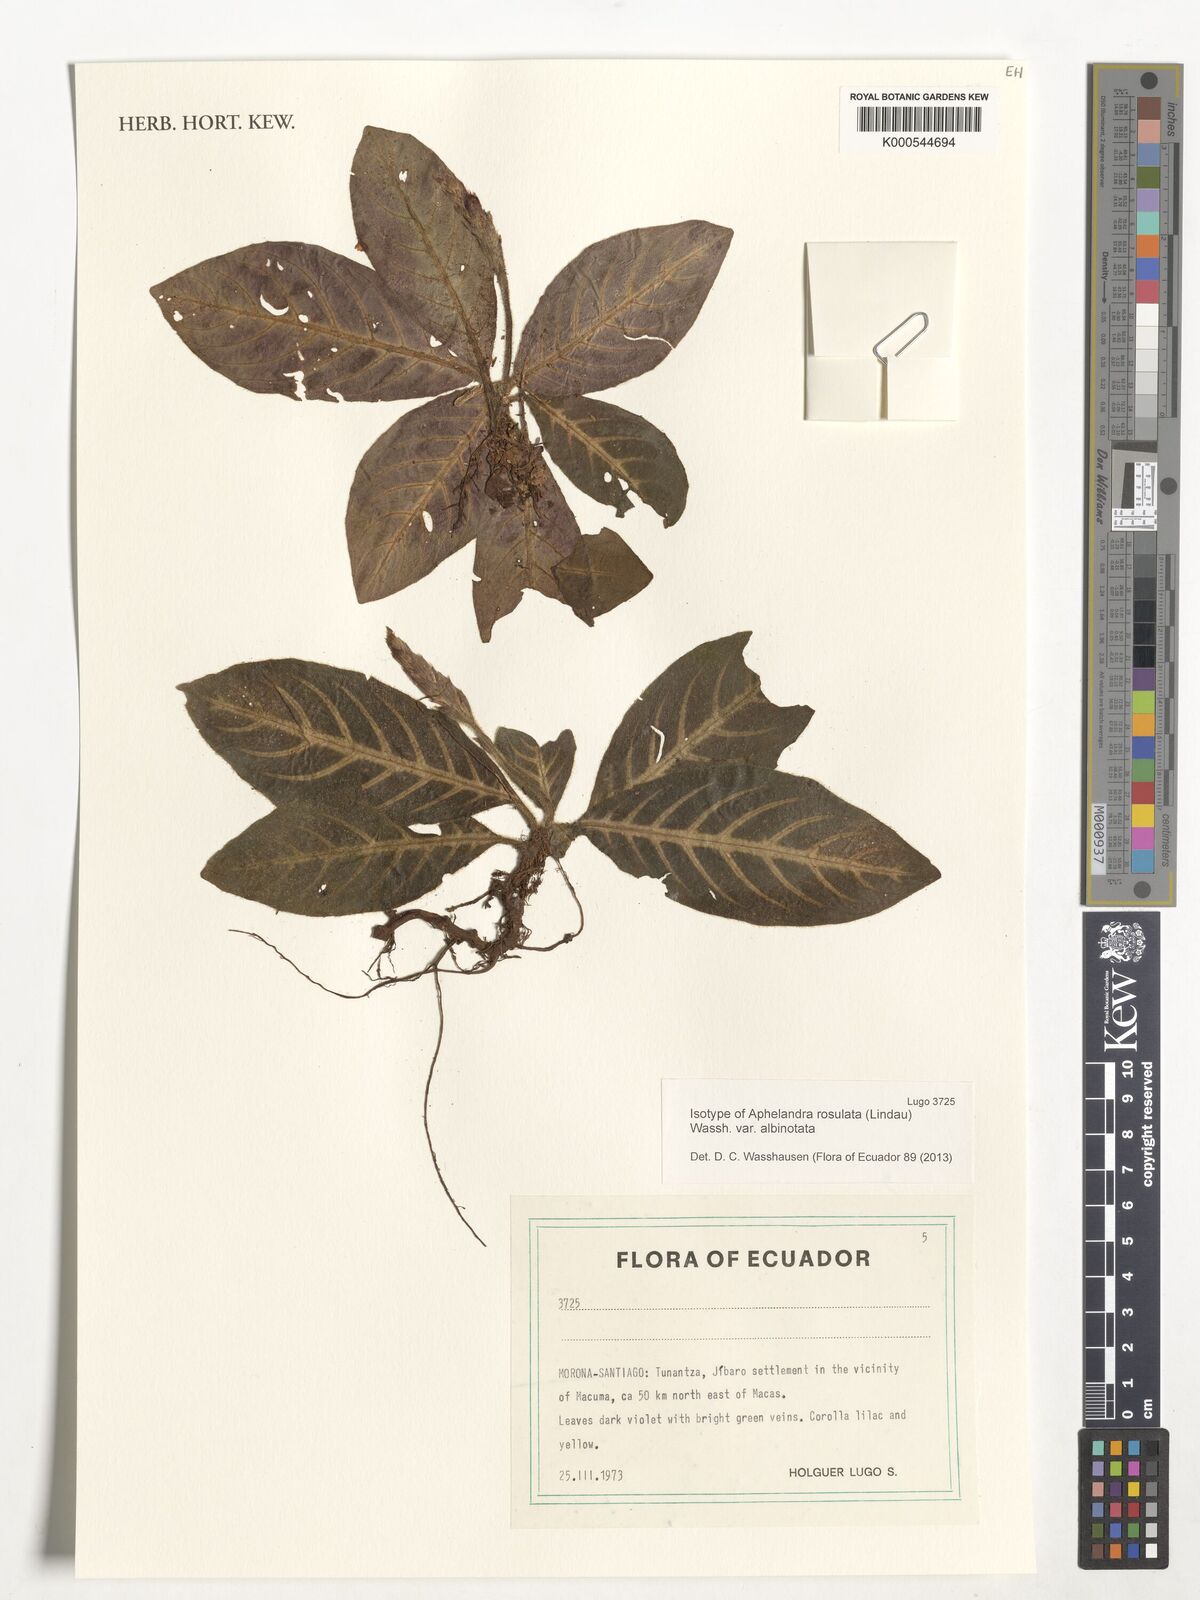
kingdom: Plantae
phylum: Tracheophyta
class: Magnoliopsida
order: Lamiales
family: Acanthaceae
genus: Aphelandra
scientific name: Aphelandra rosulata
